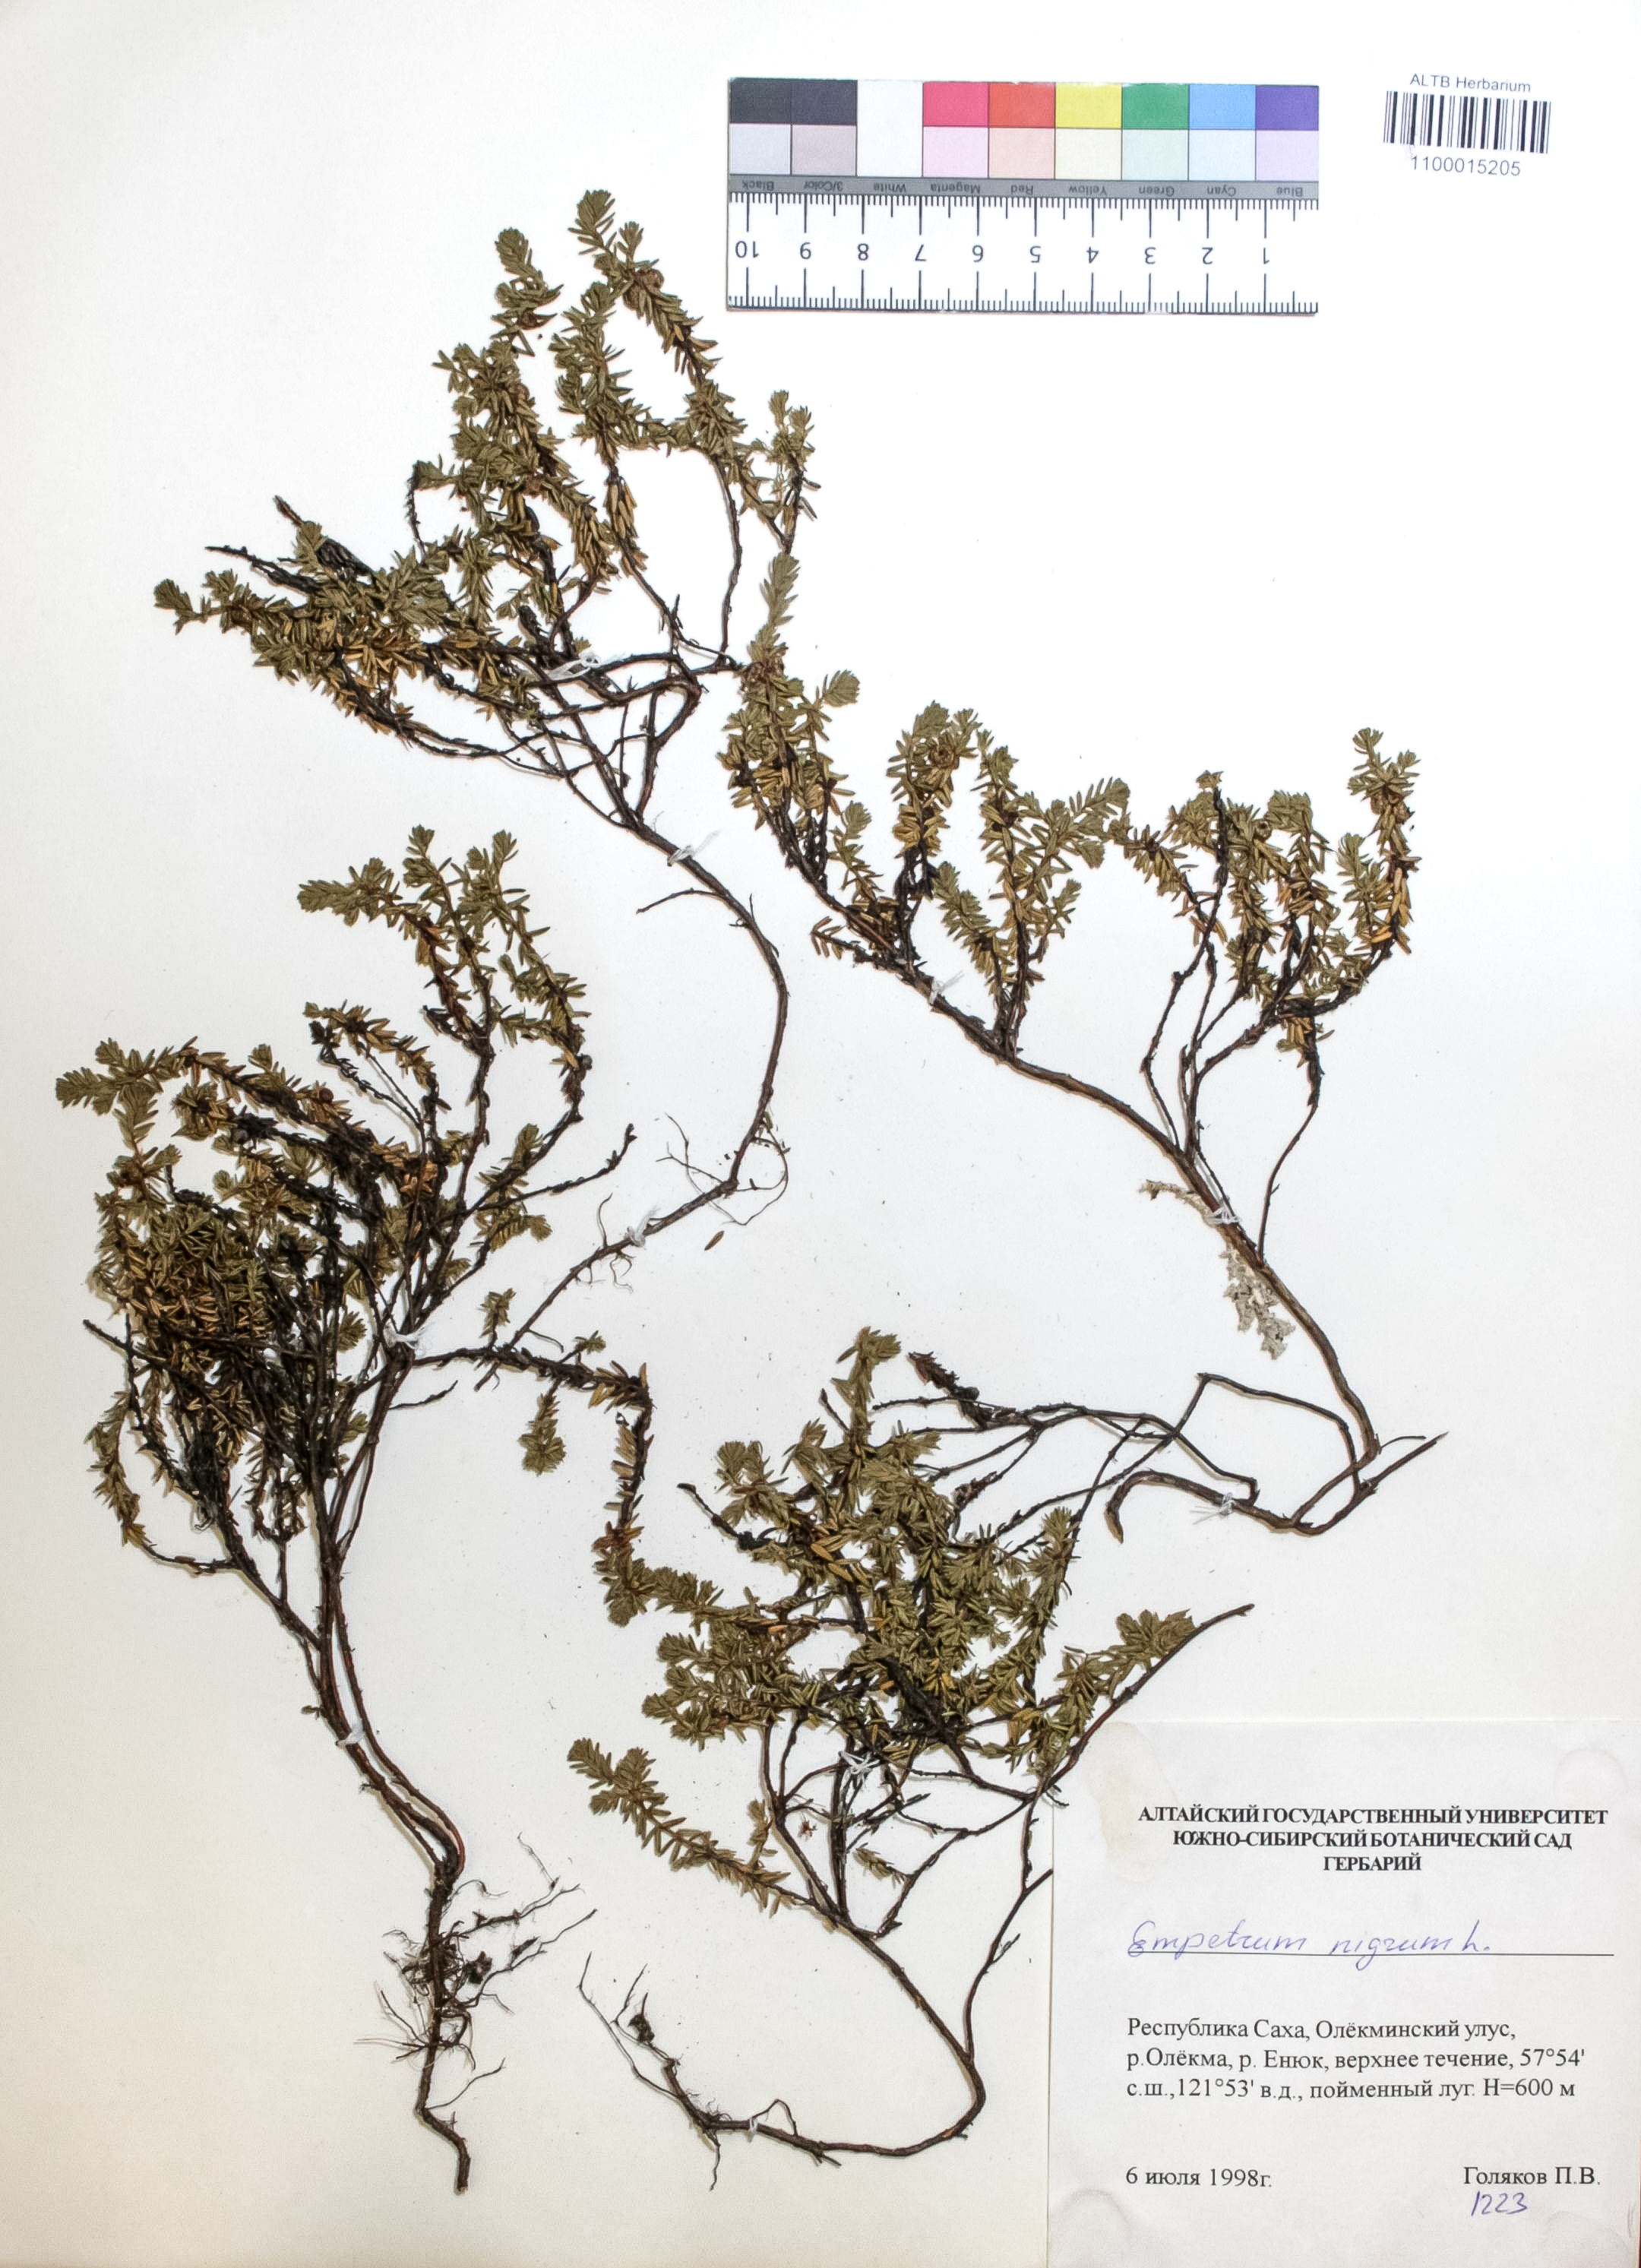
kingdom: Plantae
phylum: Tracheophyta
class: Magnoliopsida
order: Ericales
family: Ericaceae
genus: Empetrum
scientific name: Empetrum nigrum
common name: Black crowberry
